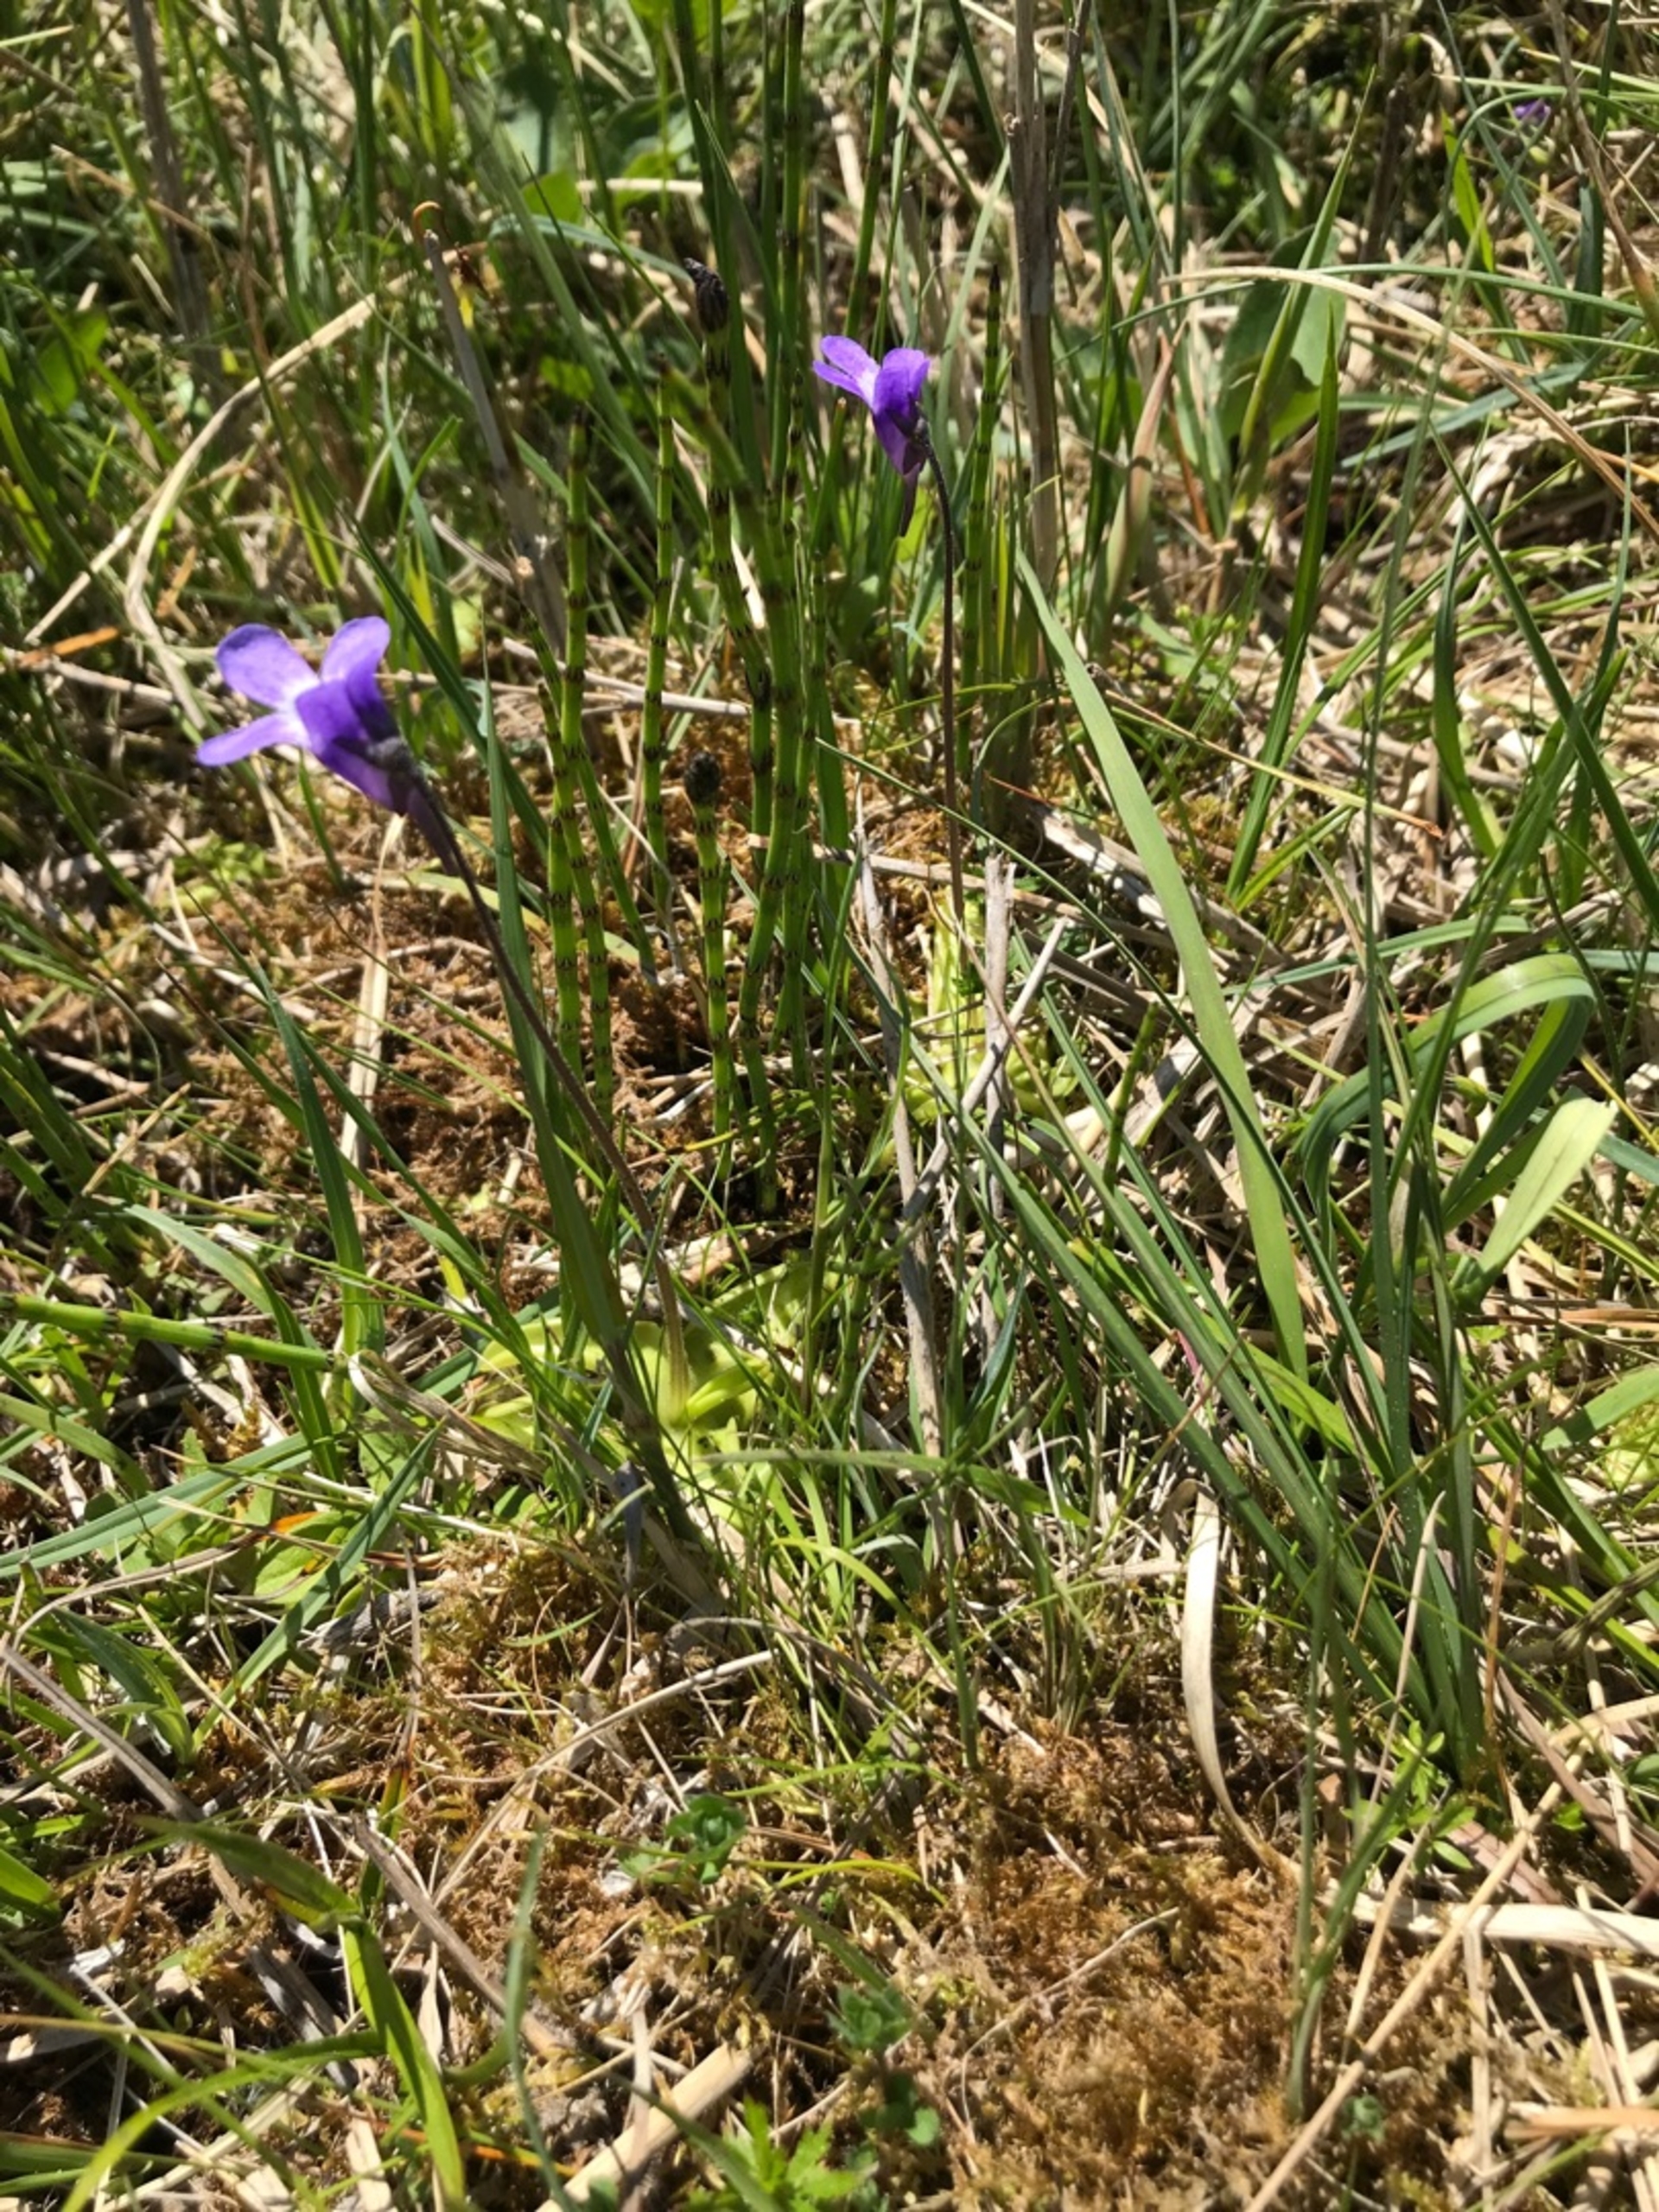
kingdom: Plantae
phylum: Tracheophyta
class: Magnoliopsida
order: Lamiales
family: Lentibulariaceae
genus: Pinguicula
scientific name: Pinguicula vulgaris
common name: Vibefedt
